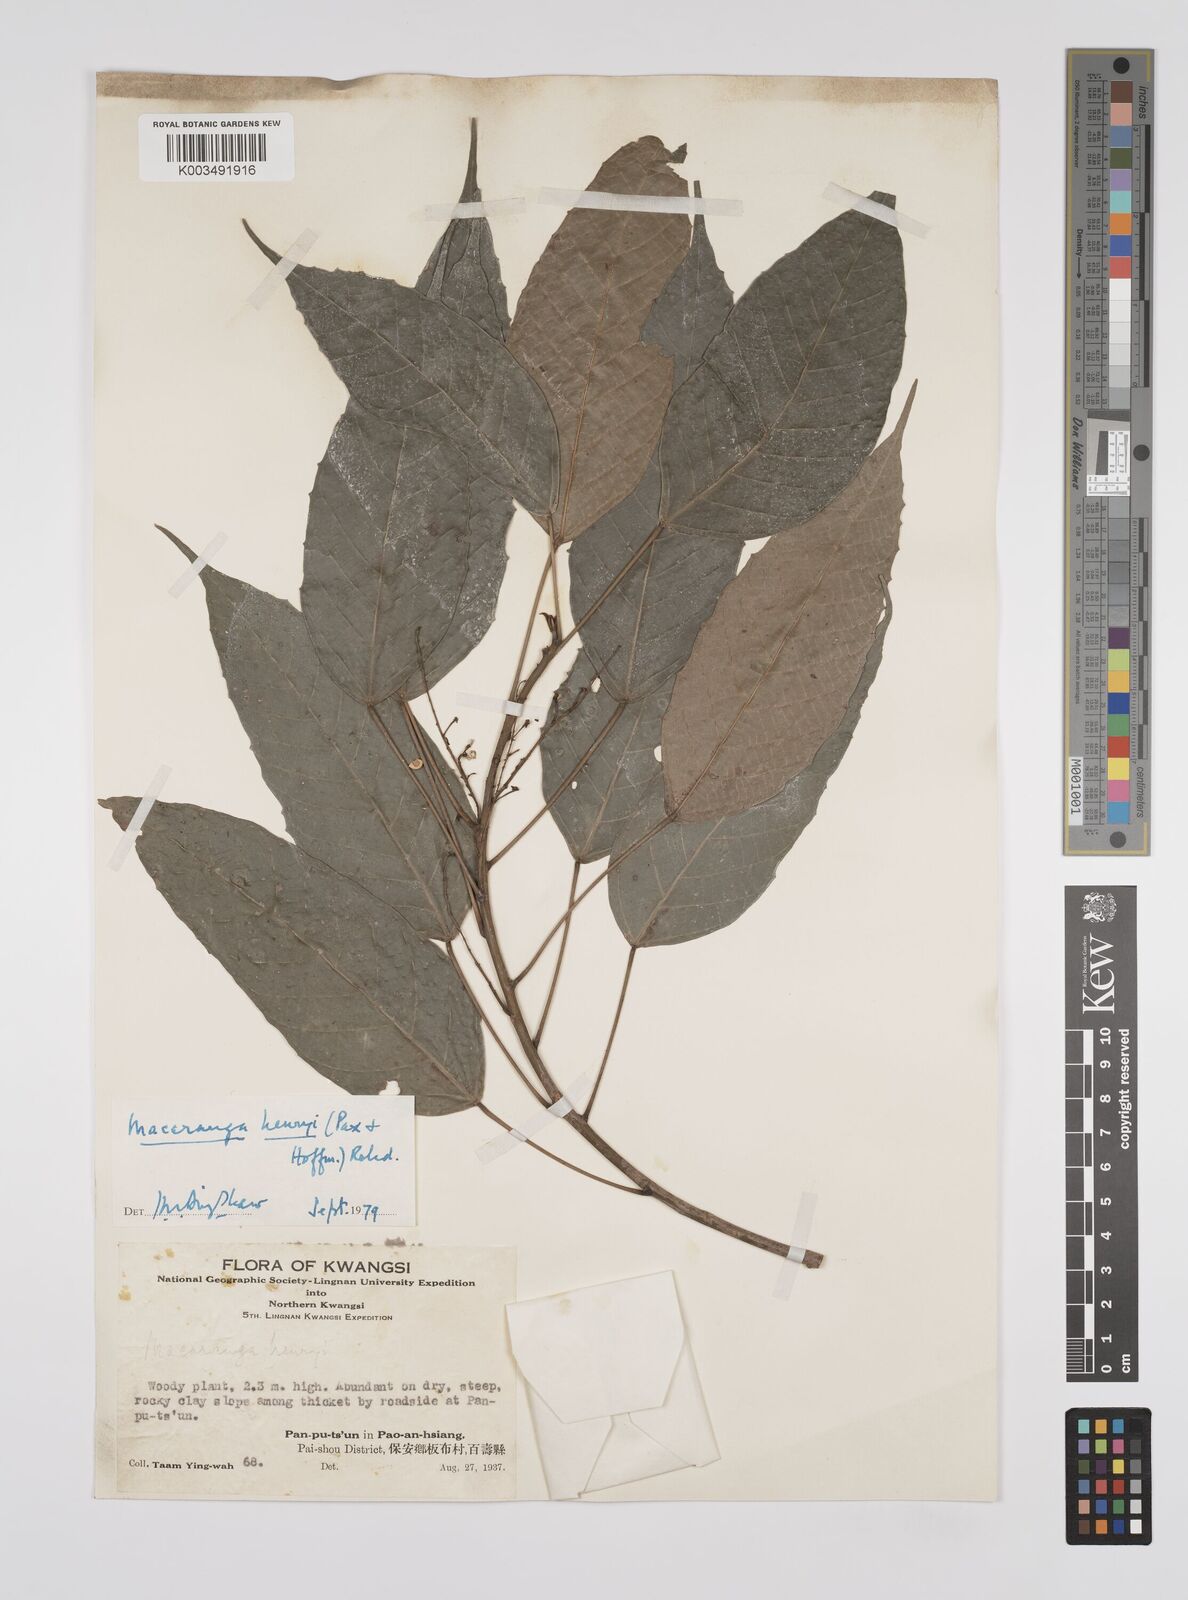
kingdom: Plantae
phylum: Tracheophyta
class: Magnoliopsida
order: Malpighiales
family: Euphorbiaceae
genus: Macaranga
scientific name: Macaranga henryi
